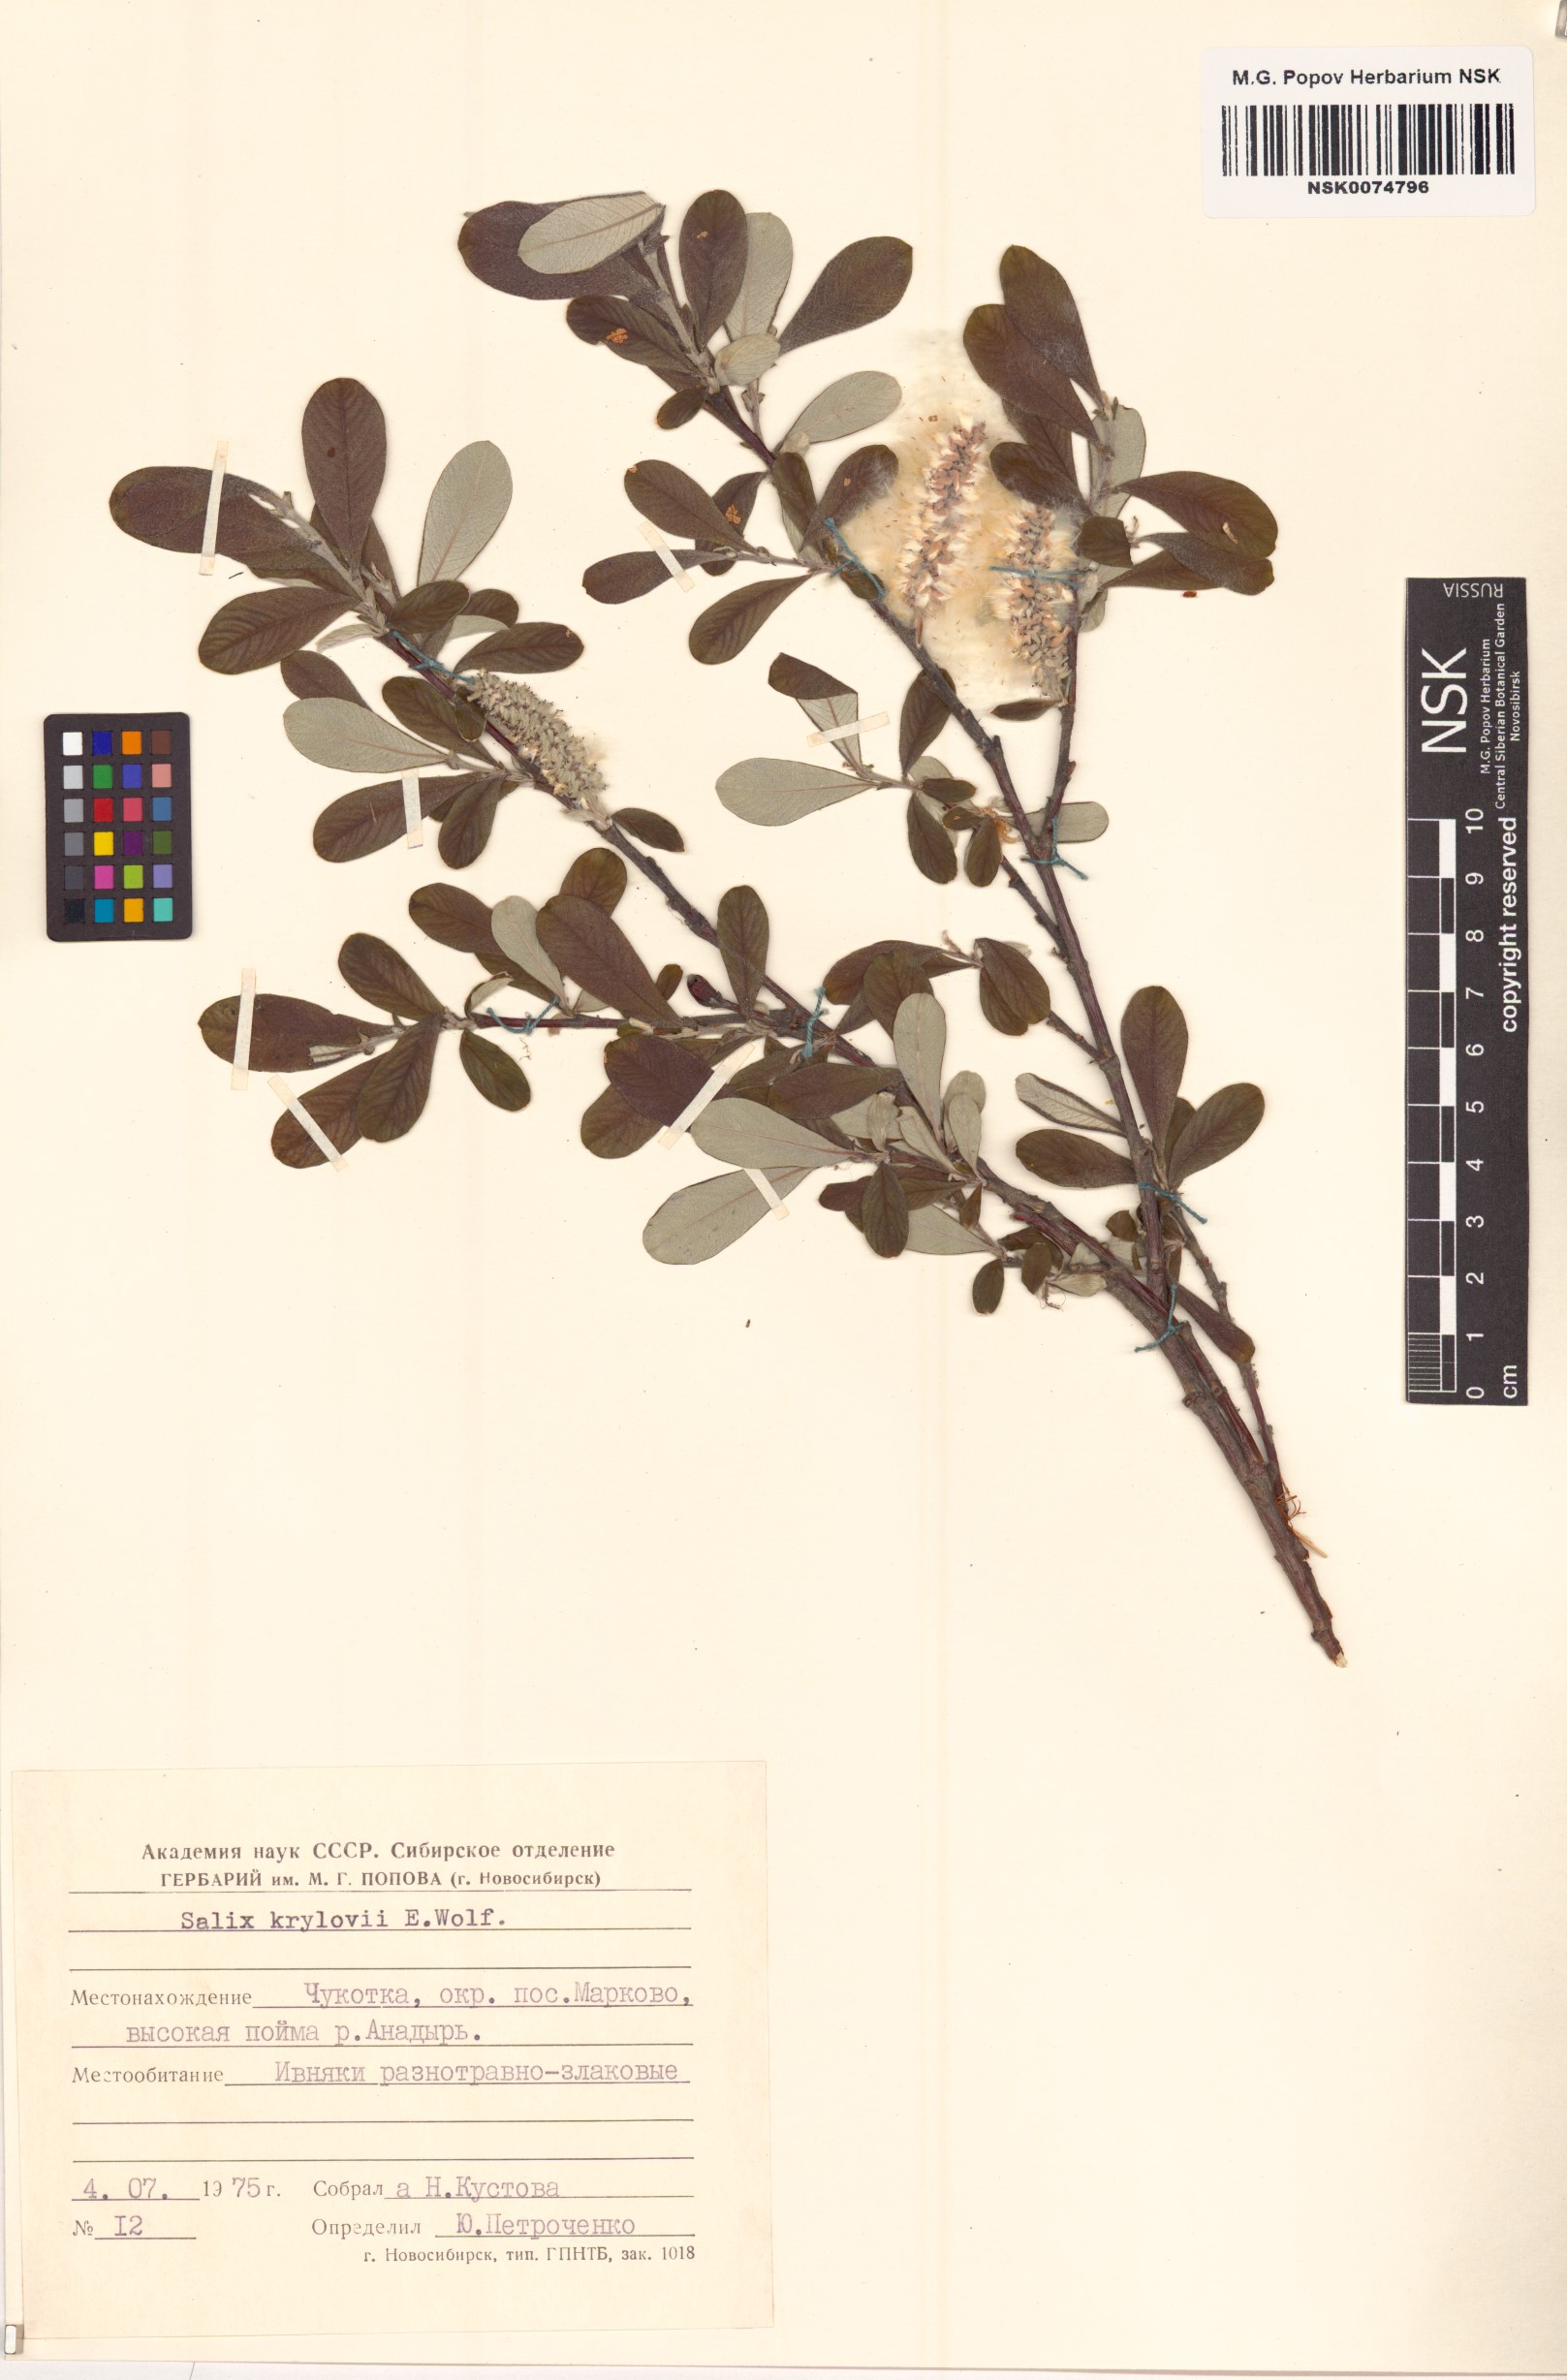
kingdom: Plantae
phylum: Tracheophyta
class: Magnoliopsida
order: Malpighiales
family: Salicaceae
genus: Salix
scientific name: Salix krylovii
